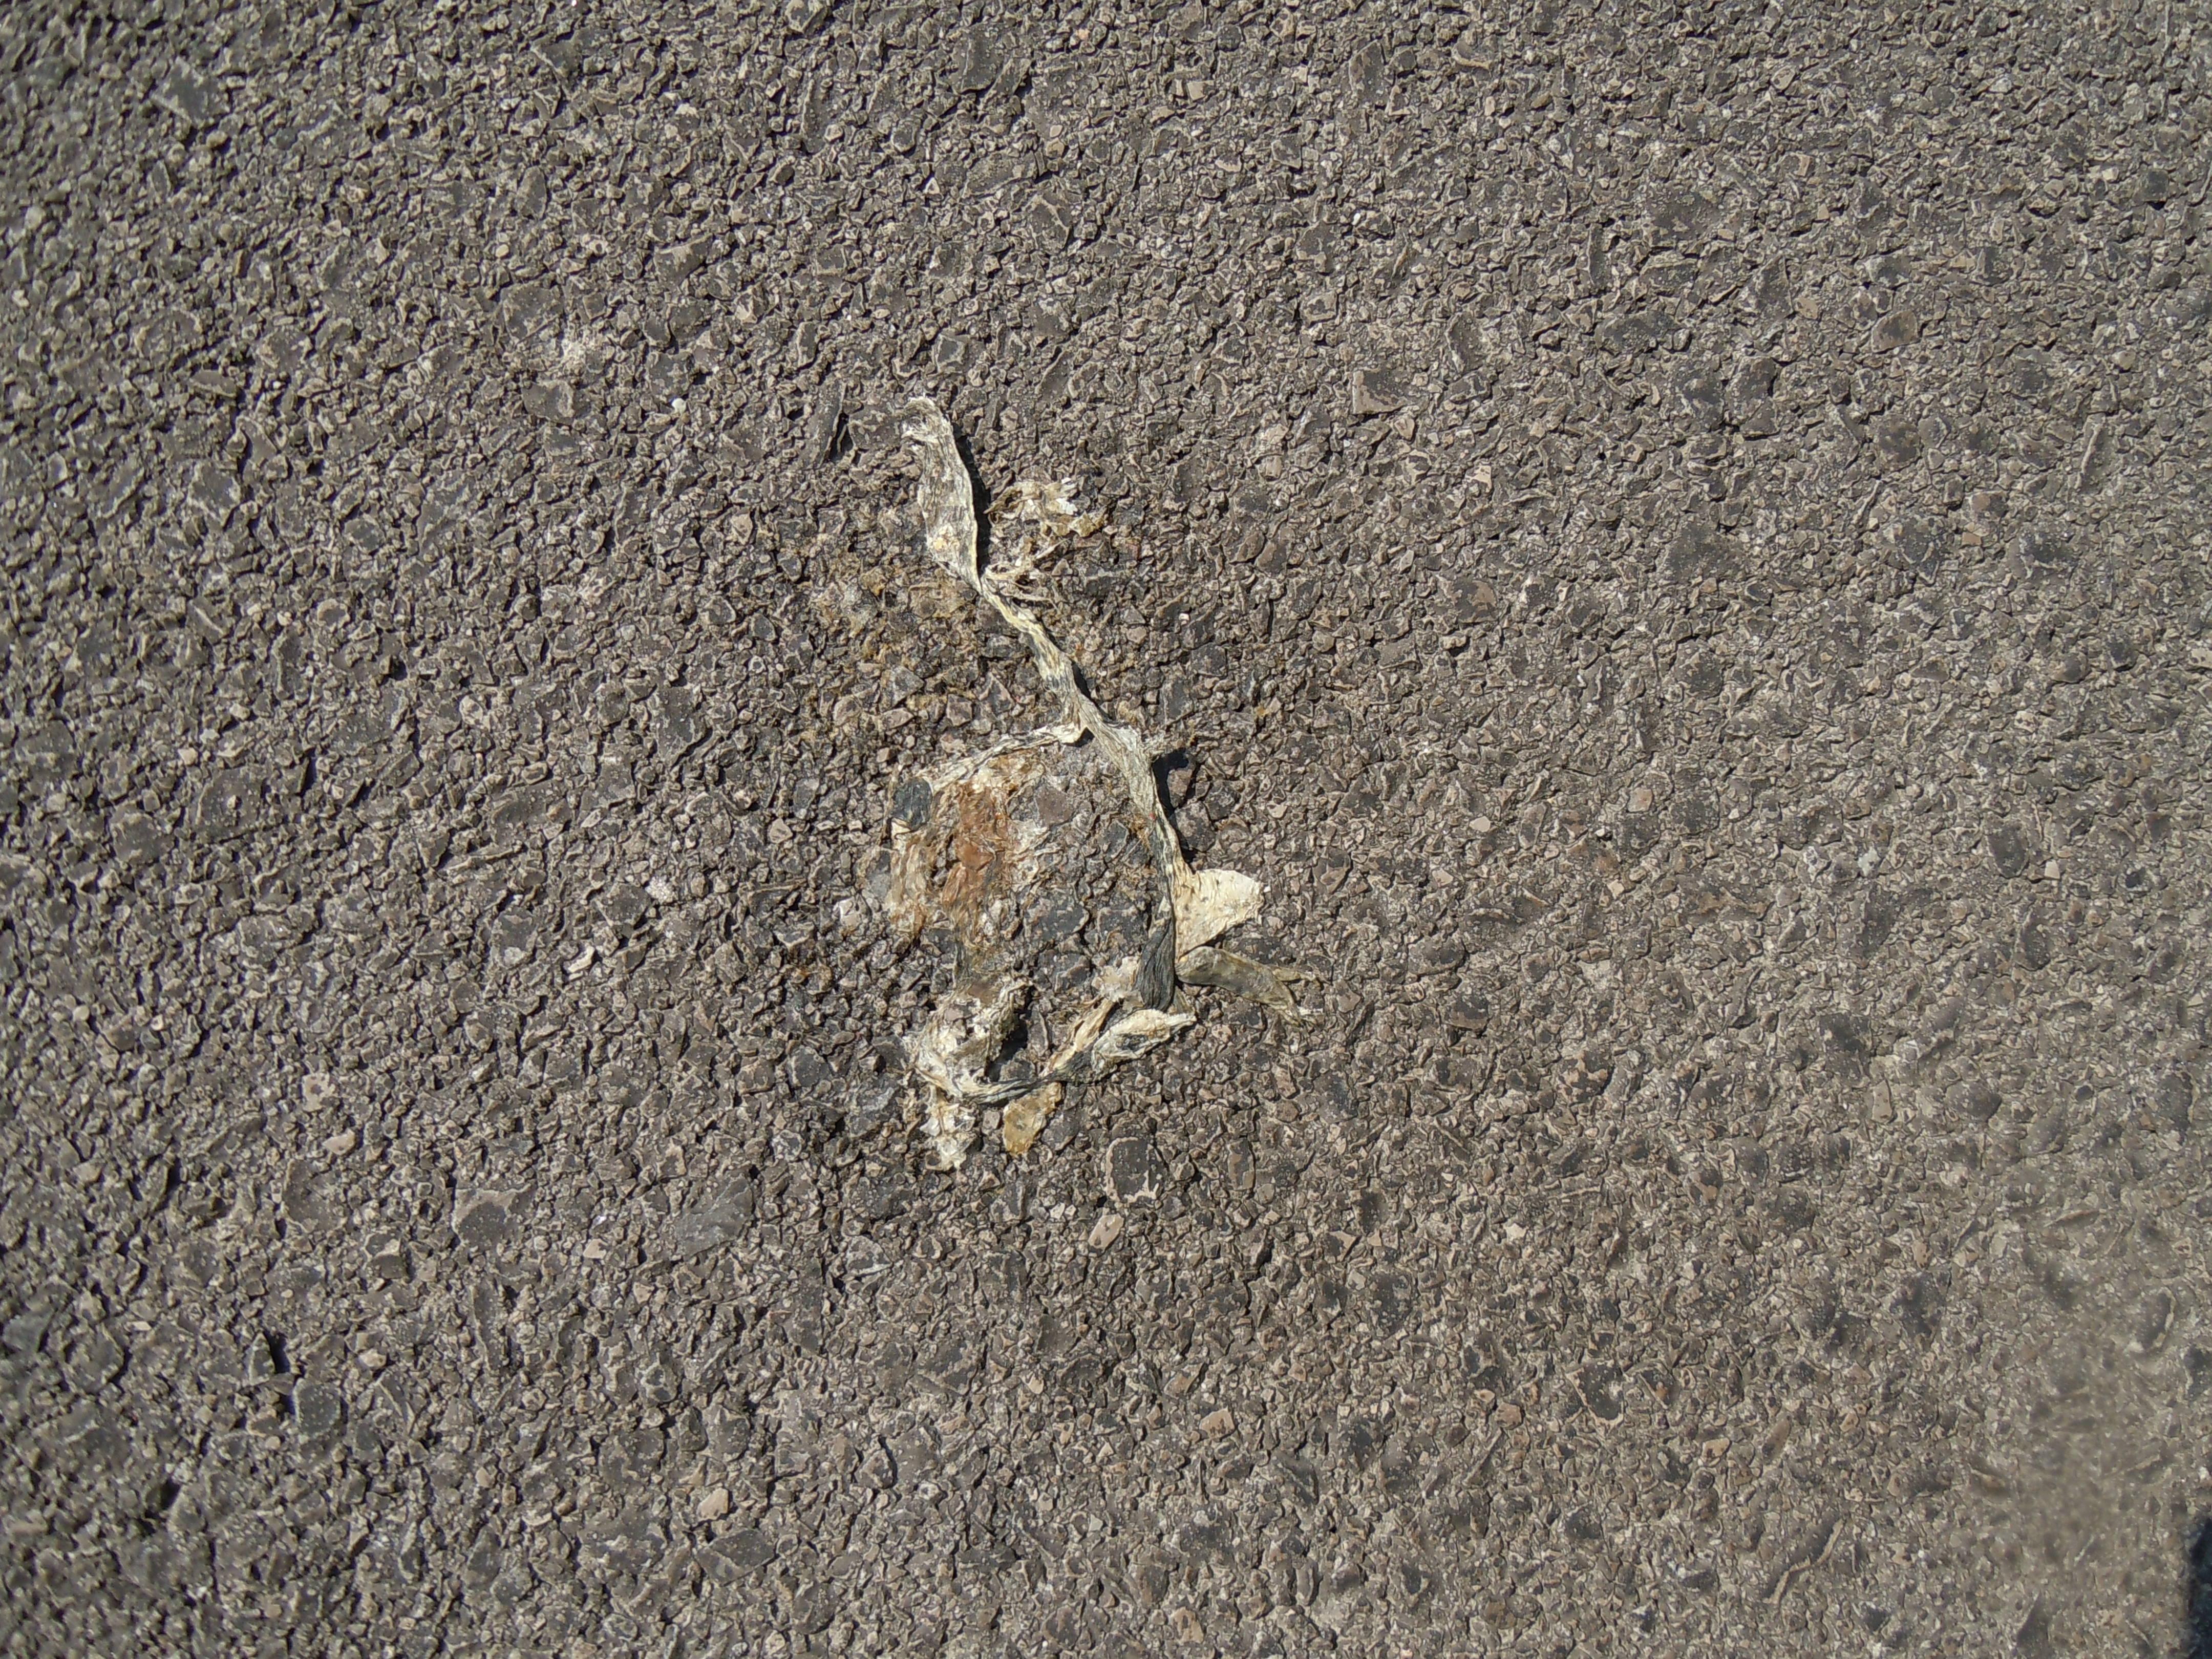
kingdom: Animalia
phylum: Chordata
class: Amphibia
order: Anura
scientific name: Anura
